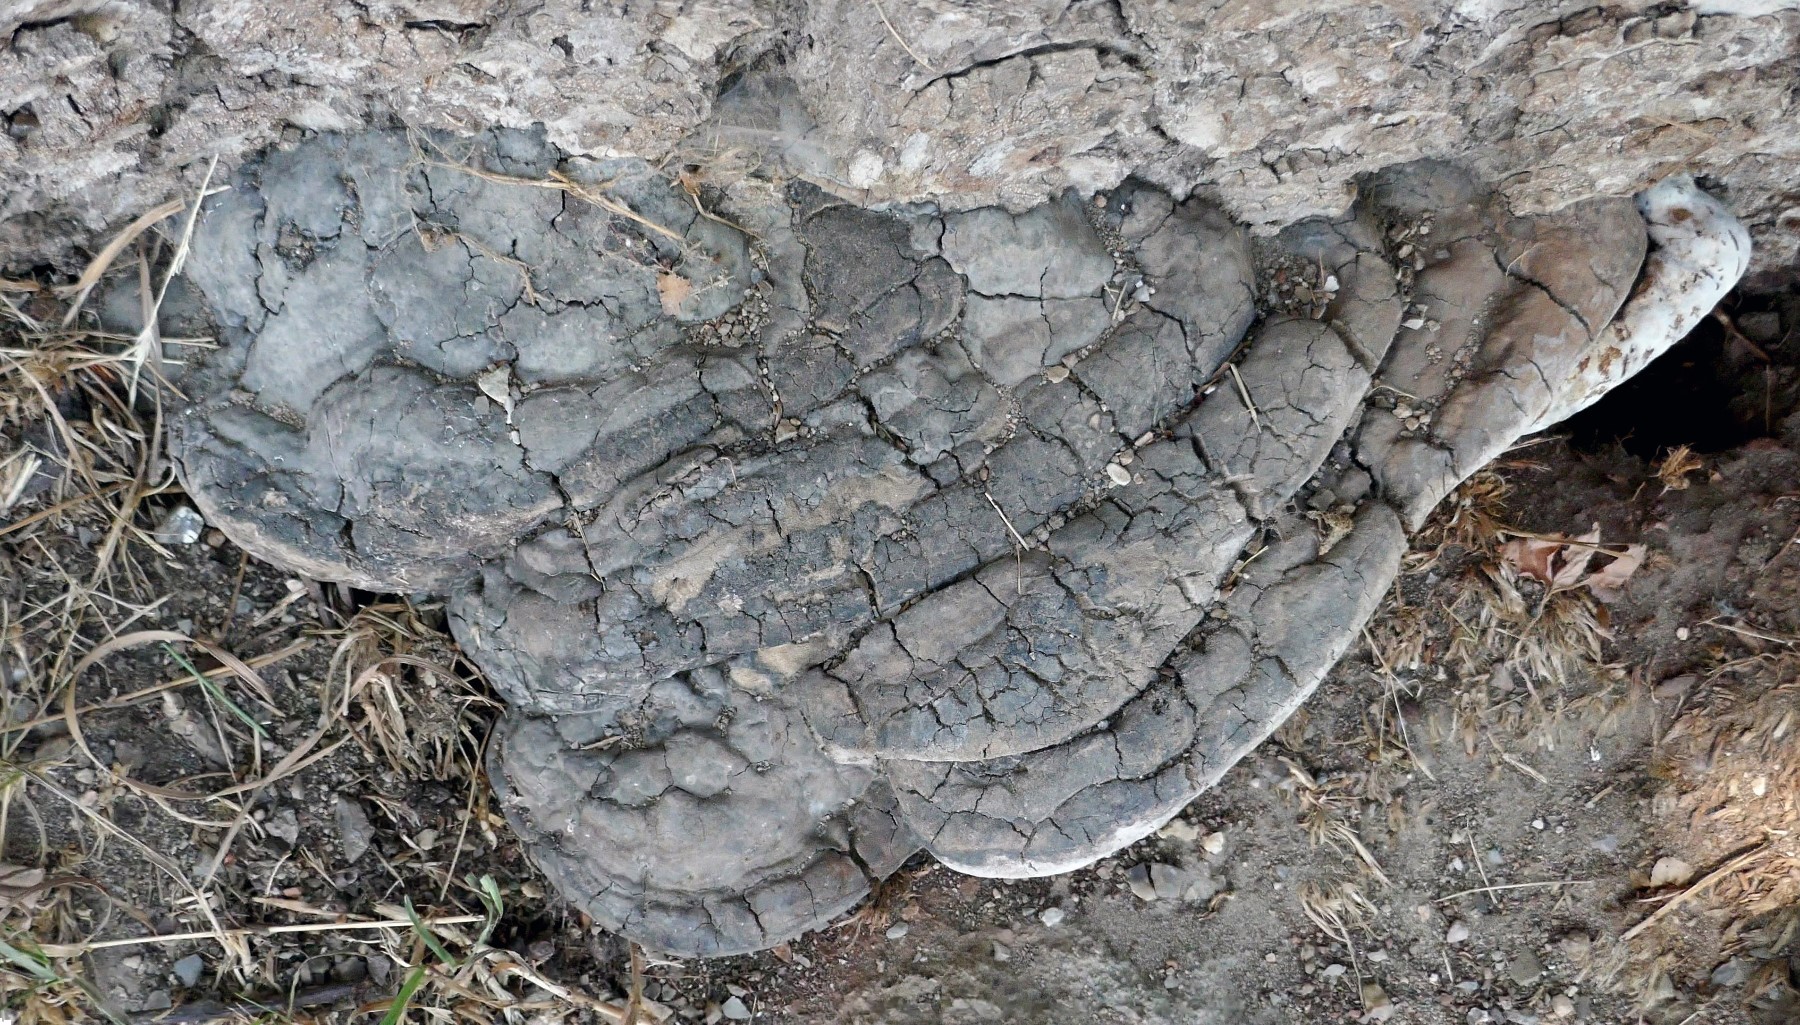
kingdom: Fungi
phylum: Basidiomycota
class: Agaricomycetes
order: Polyporales
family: Polyporaceae
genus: Ganoderma
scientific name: Ganoderma adspersum
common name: grov lakporesvamp
